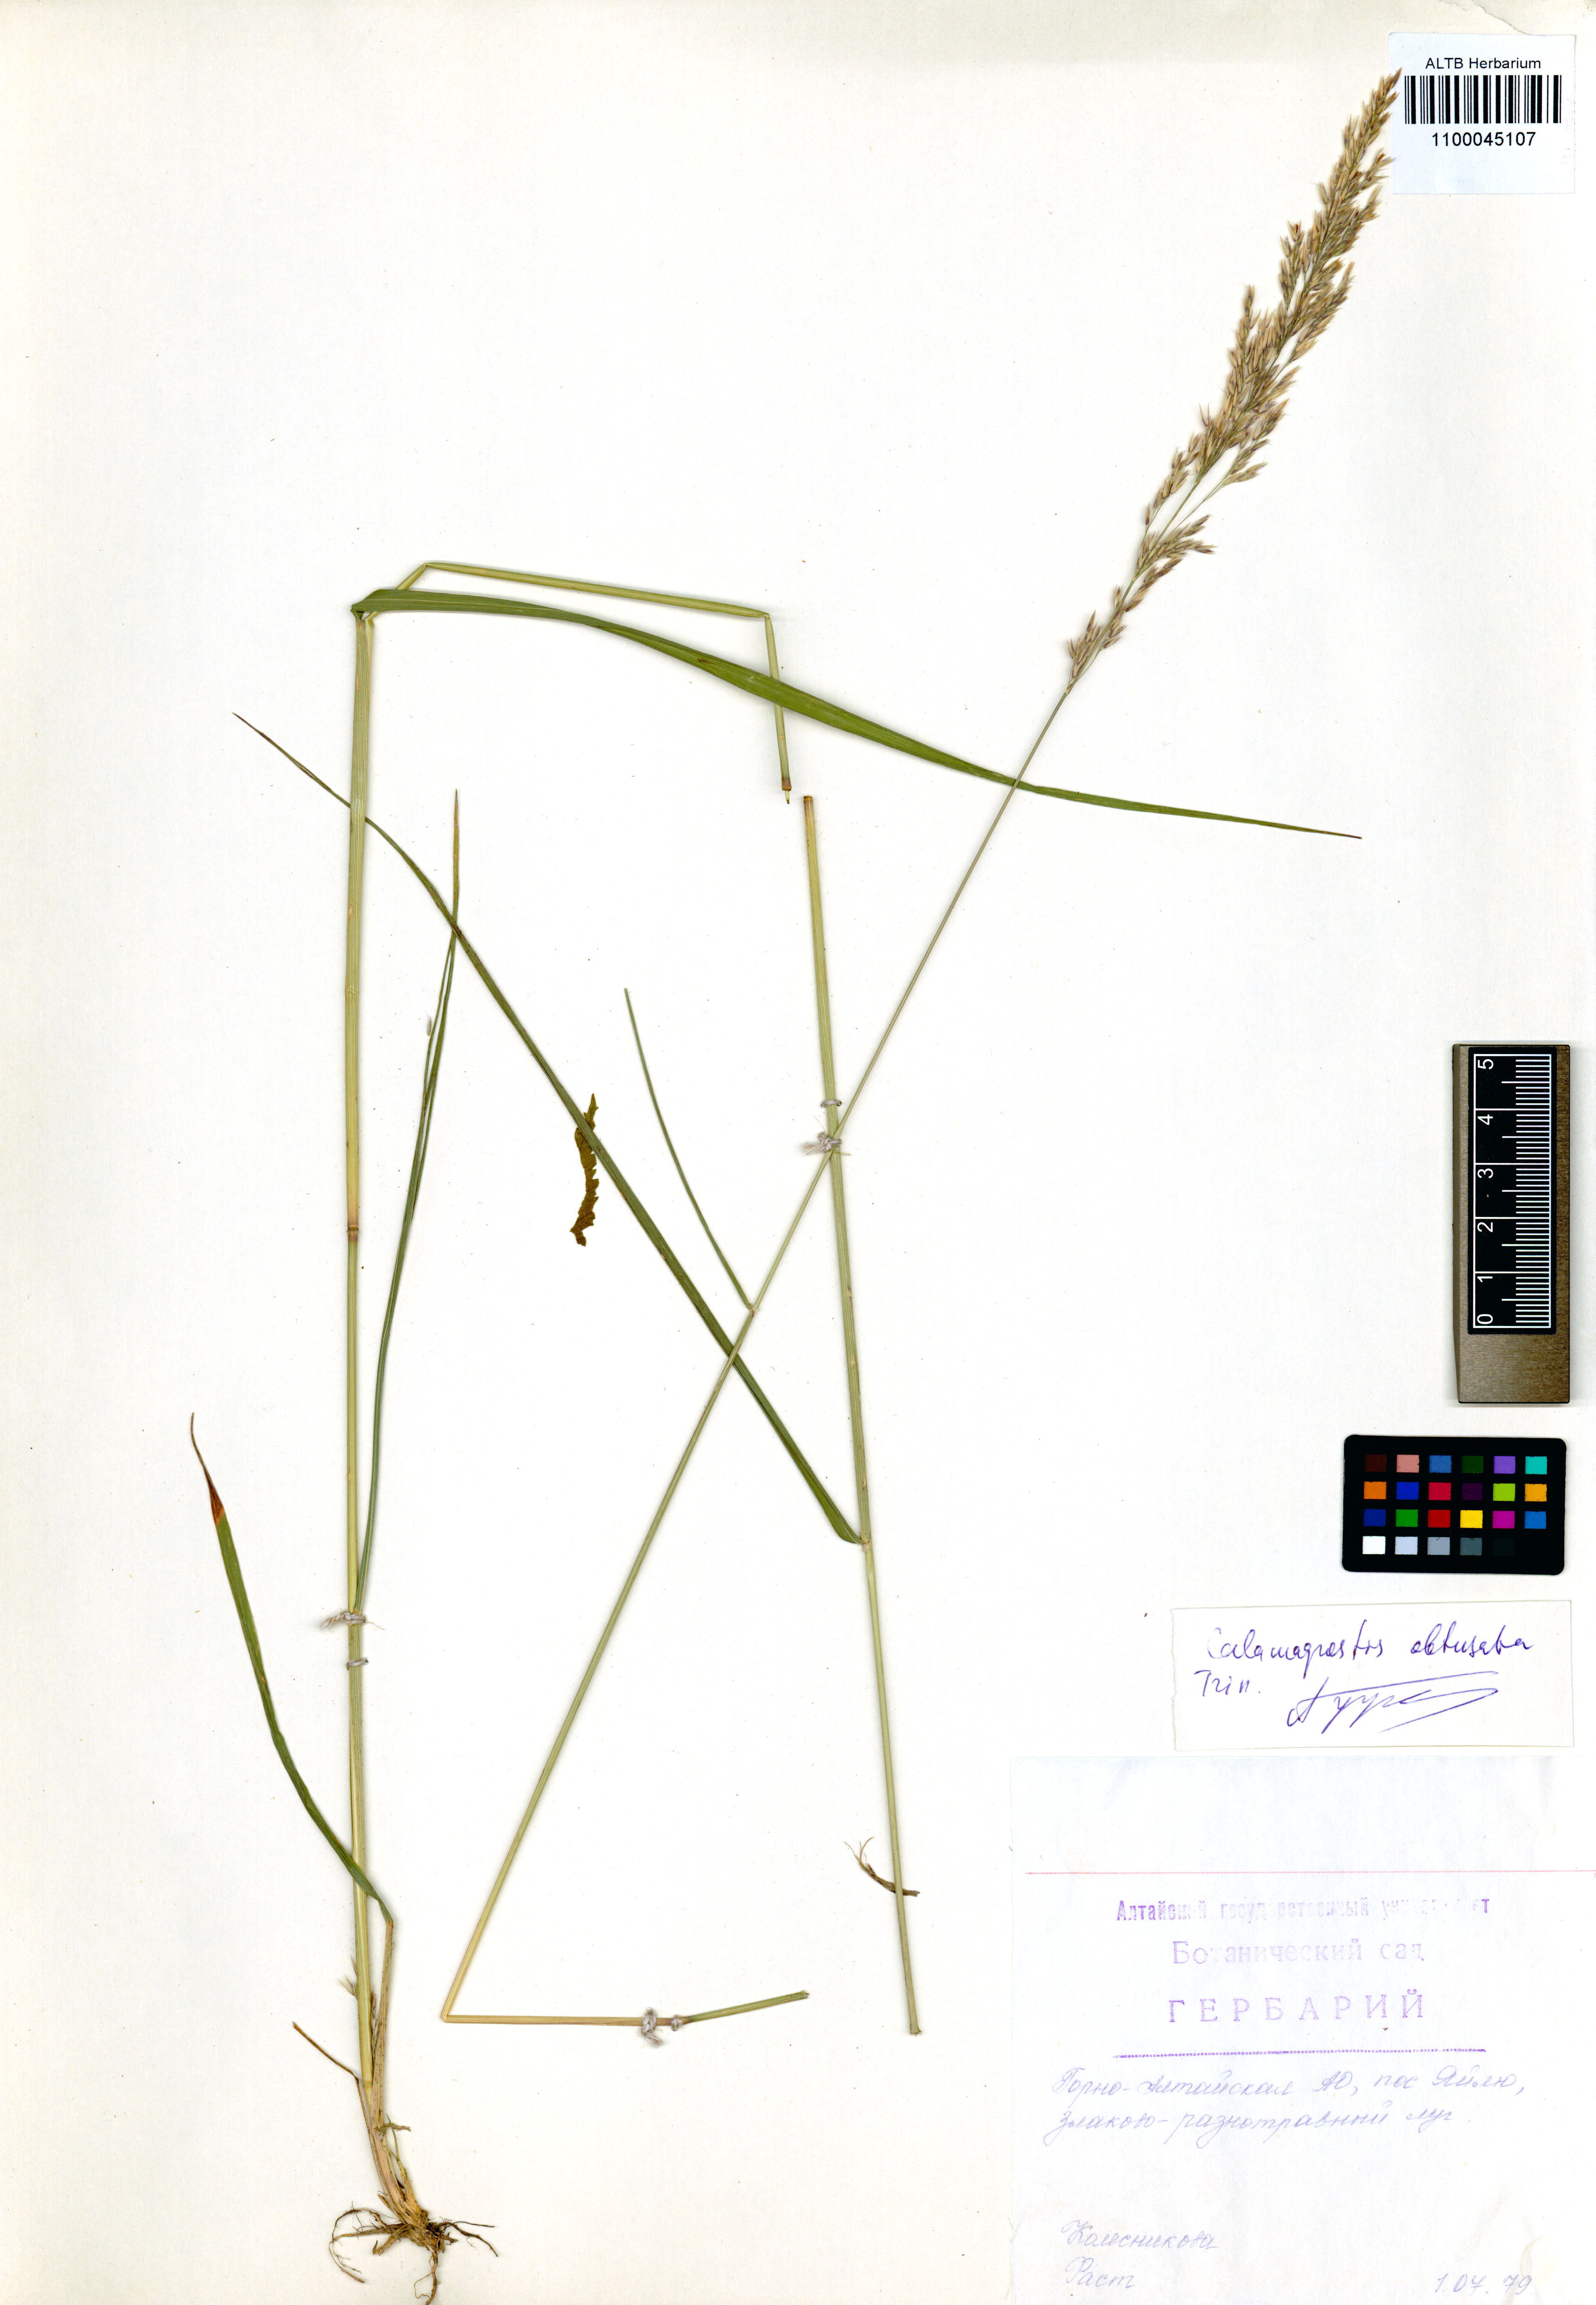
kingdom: Plantae
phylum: Tracheophyta
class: Liliopsida
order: Poales
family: Poaceae
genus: Calamagrostis
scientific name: Calamagrostis obtusata
